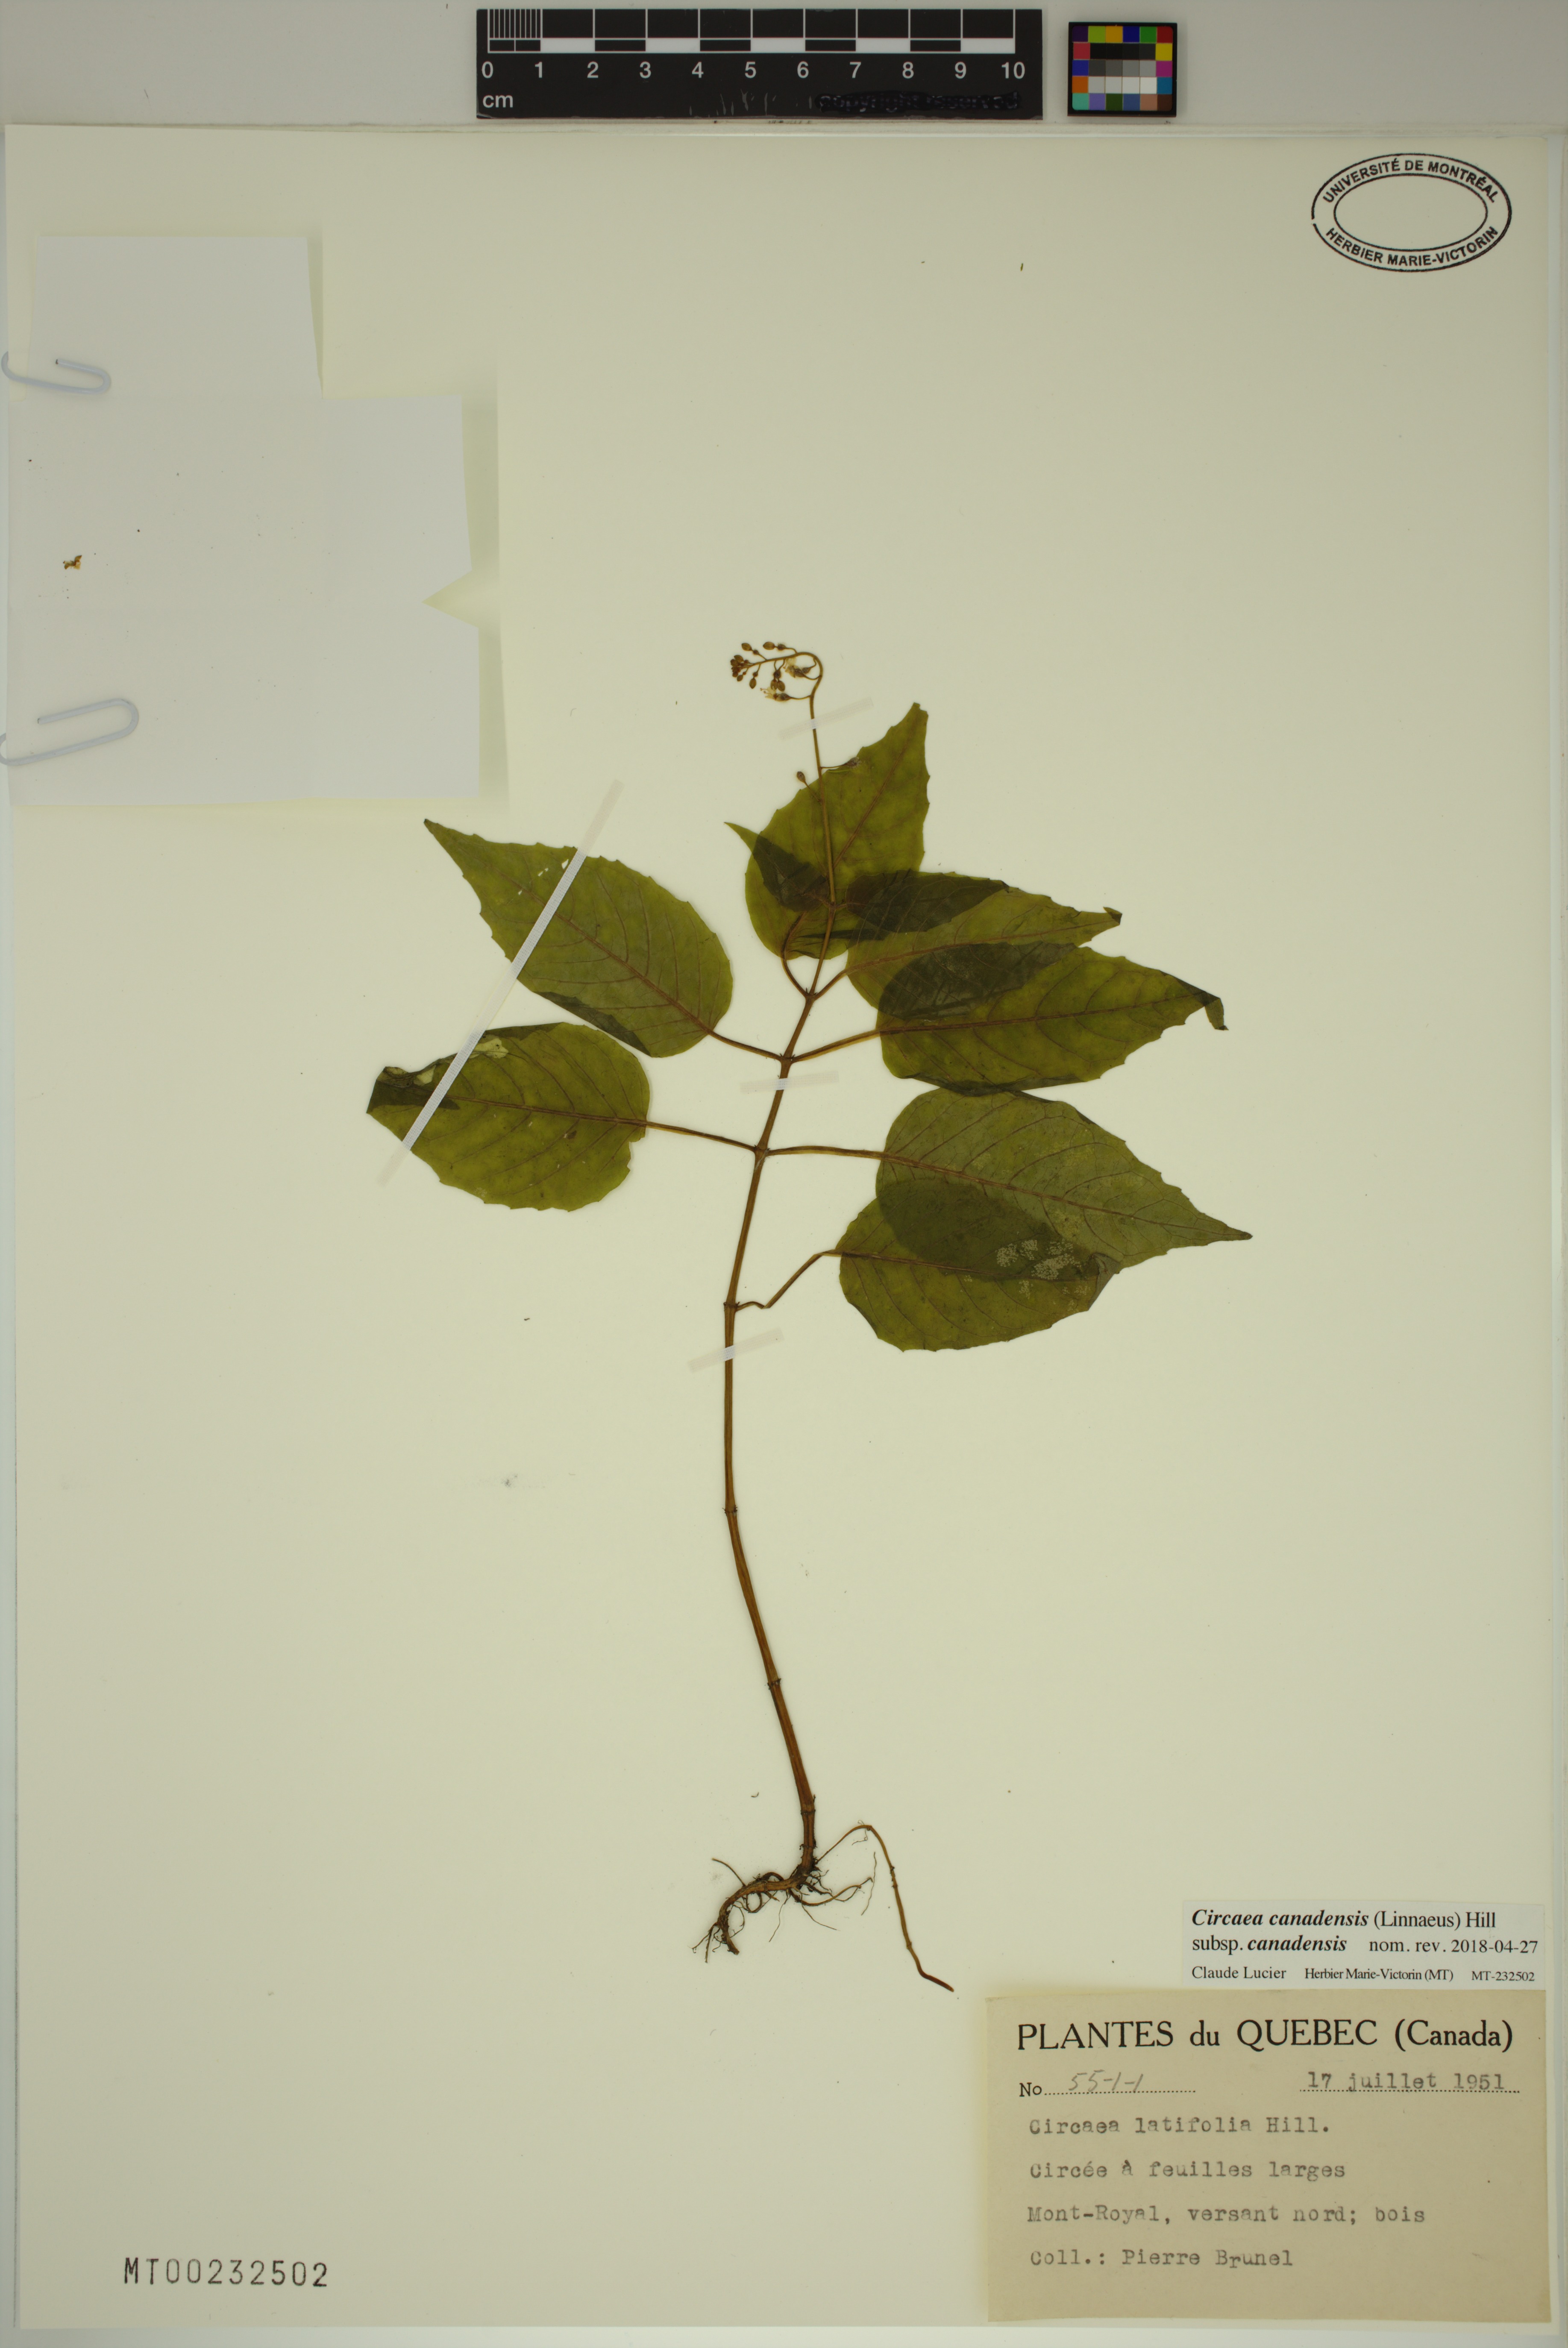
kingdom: Plantae
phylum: Tracheophyta
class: Magnoliopsida
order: Myrtales
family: Onagraceae
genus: Circaea
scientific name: Circaea canadensis
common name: Broad-leaved enchanter's nightshade
